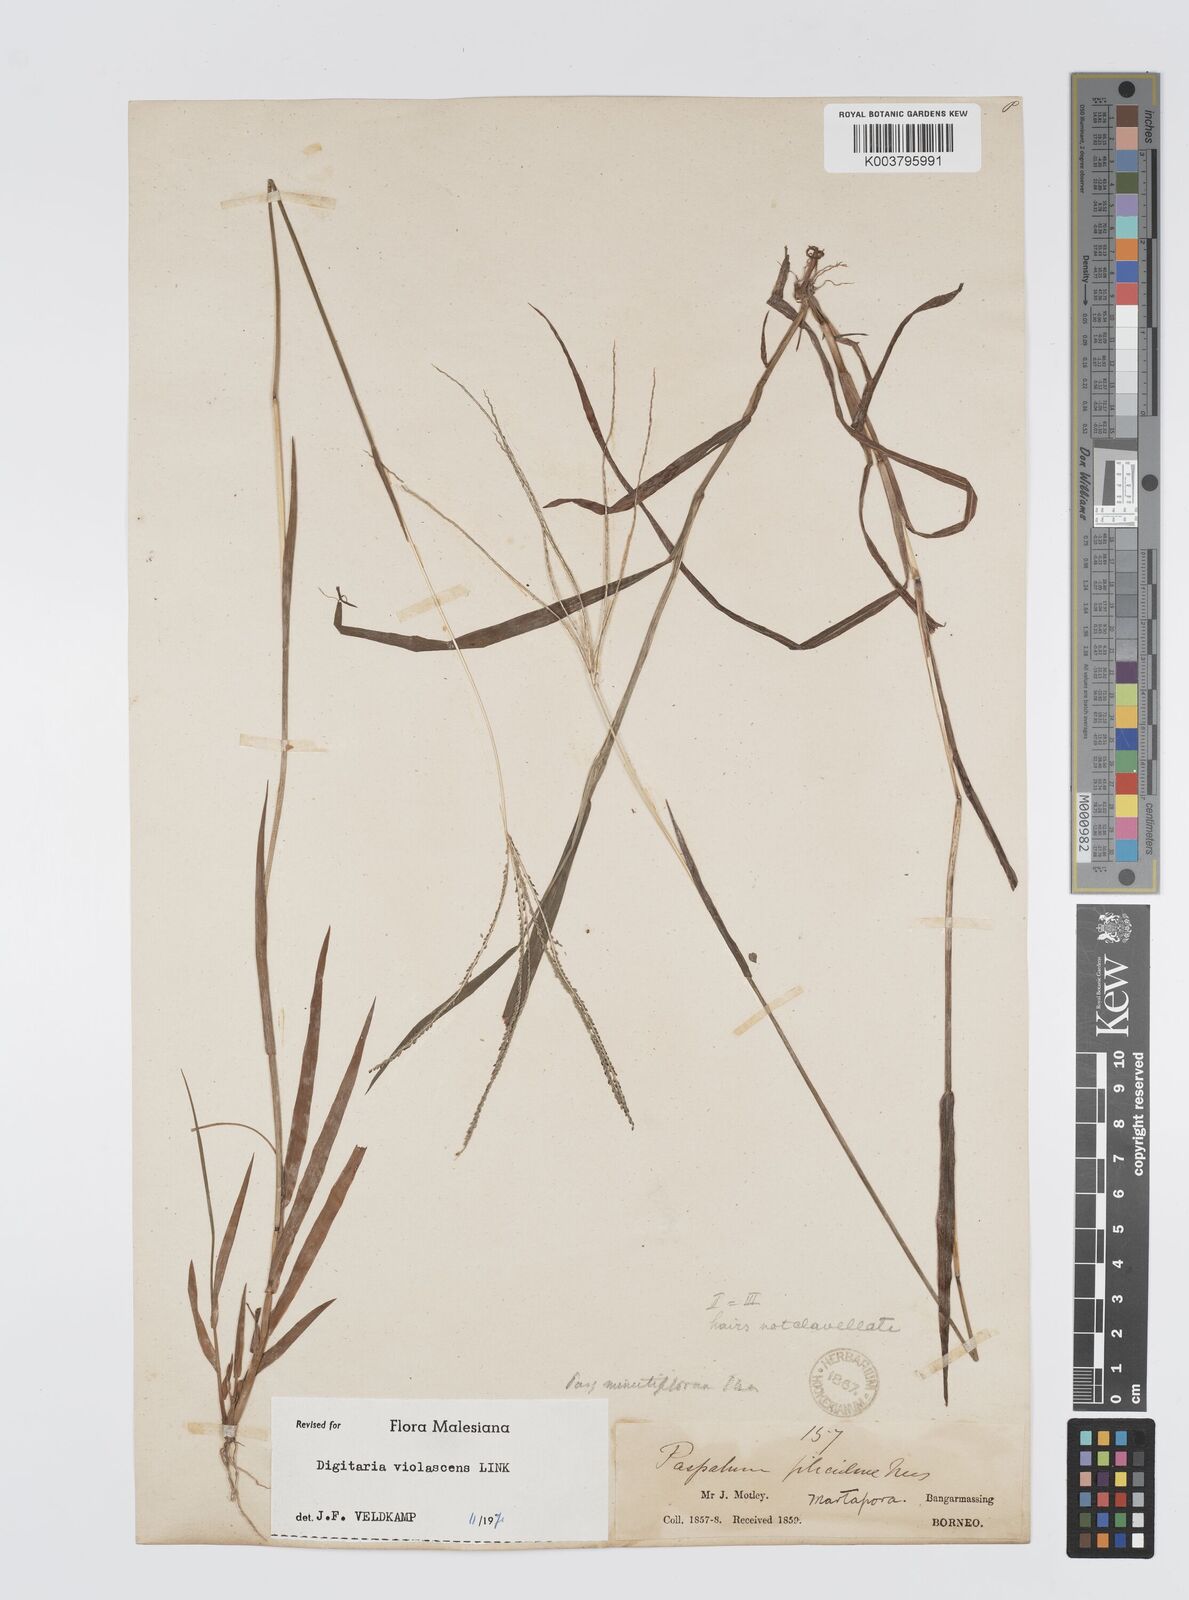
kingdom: Plantae
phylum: Tracheophyta
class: Liliopsida
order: Poales
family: Poaceae
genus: Digitaria
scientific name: Digitaria violascens
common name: Violet crabgrass
